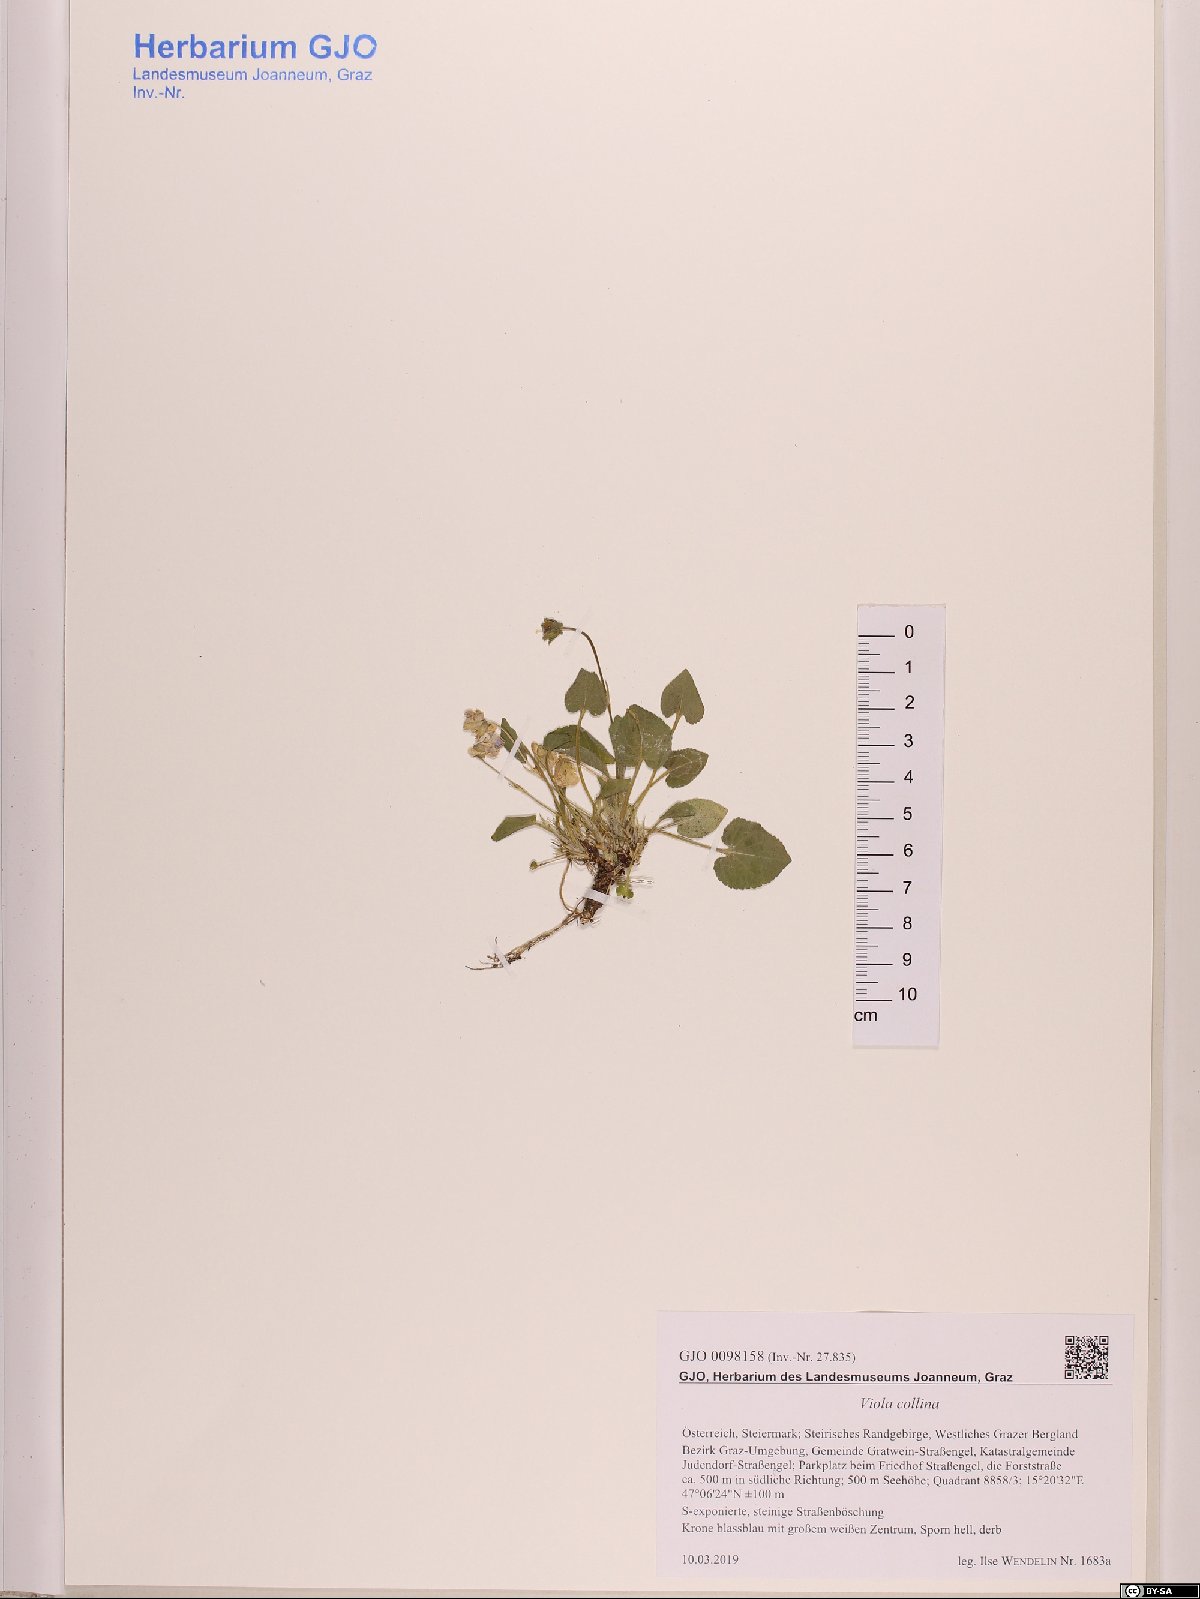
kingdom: Plantae
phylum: Tracheophyta
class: Magnoliopsida
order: Malpighiales
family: Violaceae
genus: Viola
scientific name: Viola collina
